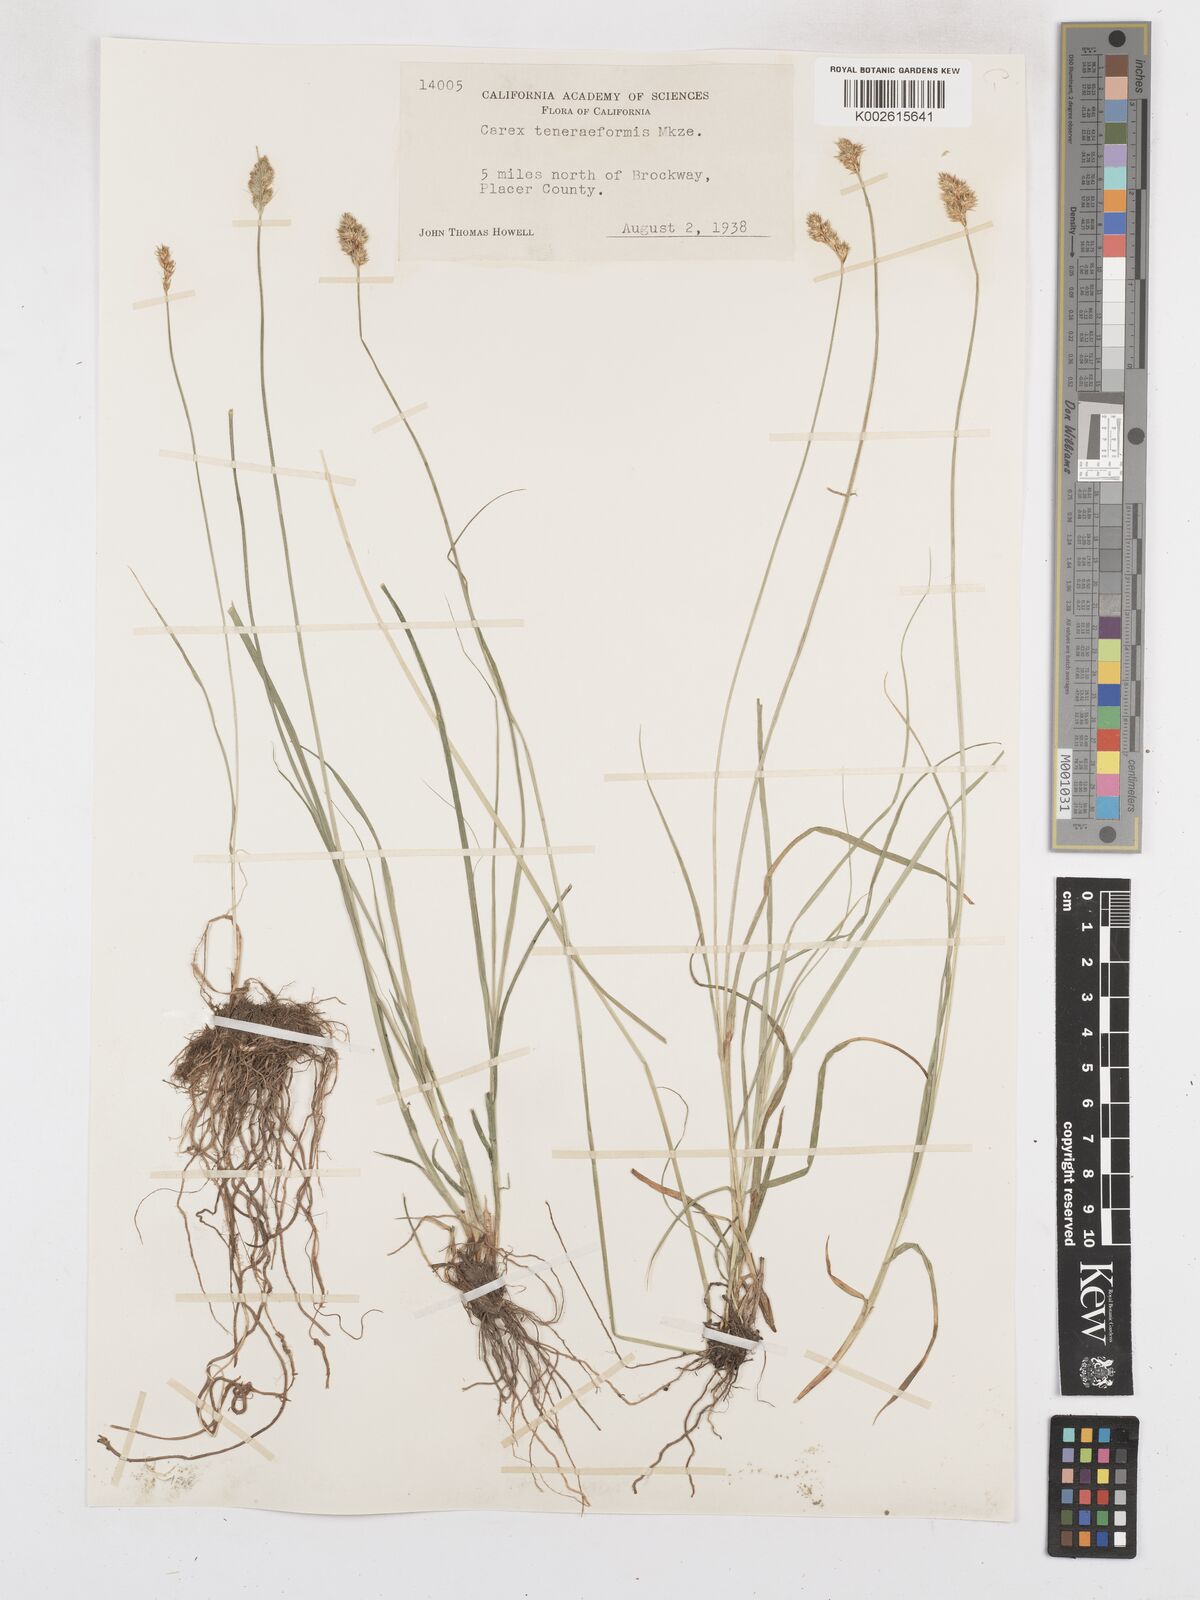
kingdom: Plantae
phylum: Tracheophyta
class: Liliopsida
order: Poales
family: Cyperaceae
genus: Carex
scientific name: Carex subfusca
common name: Brown sedge
